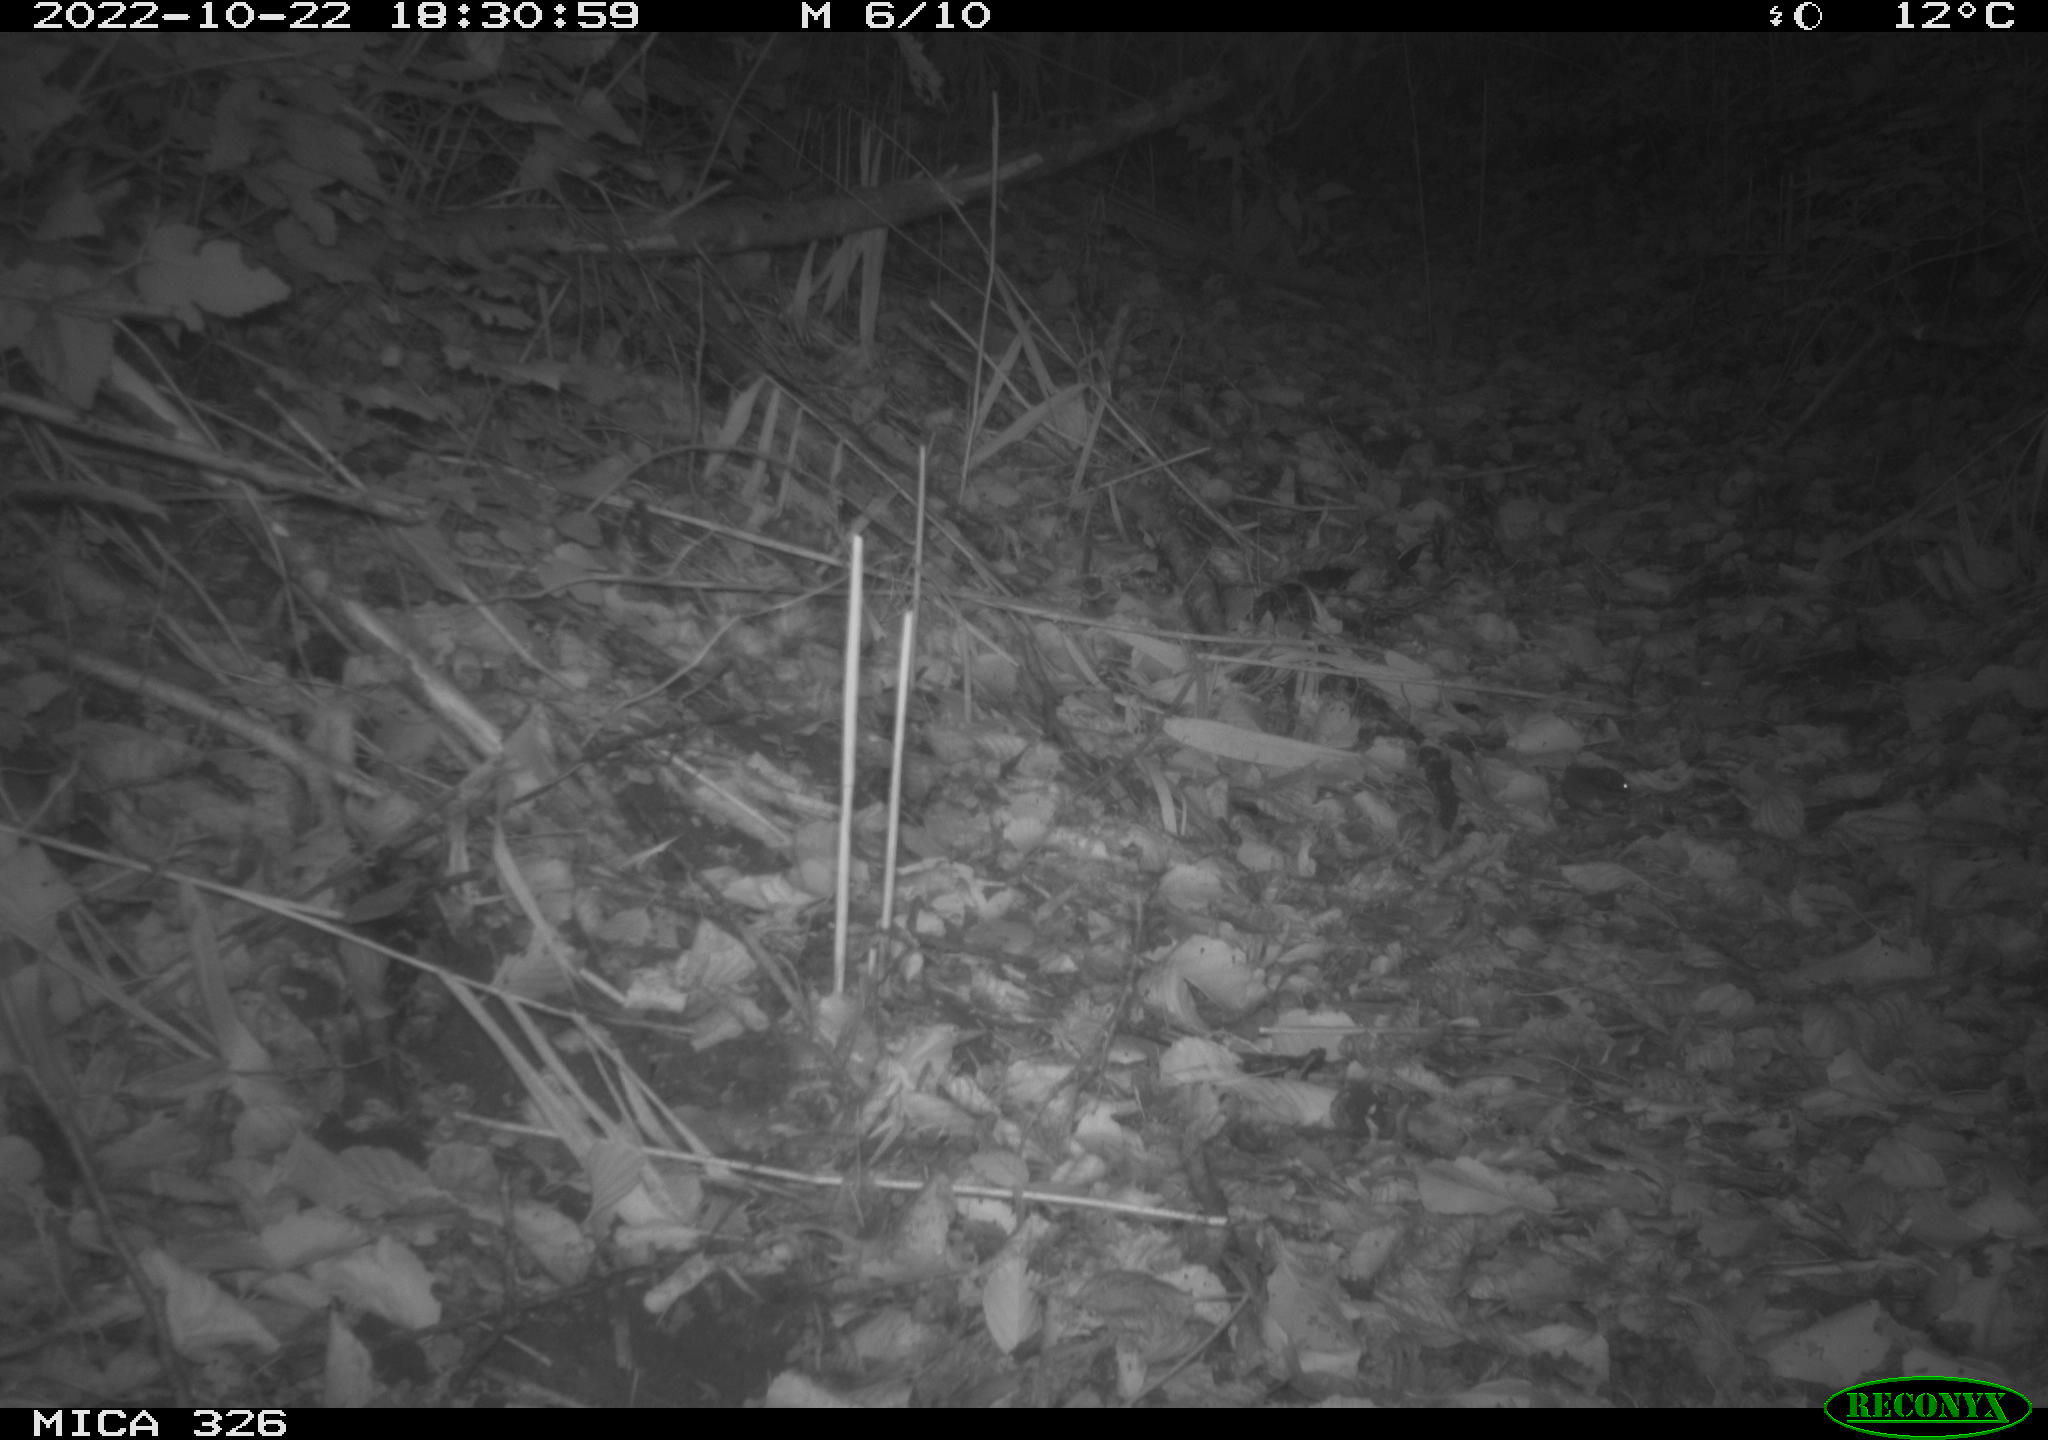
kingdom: Animalia
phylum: Chordata
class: Mammalia
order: Rodentia
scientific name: Rodentia
